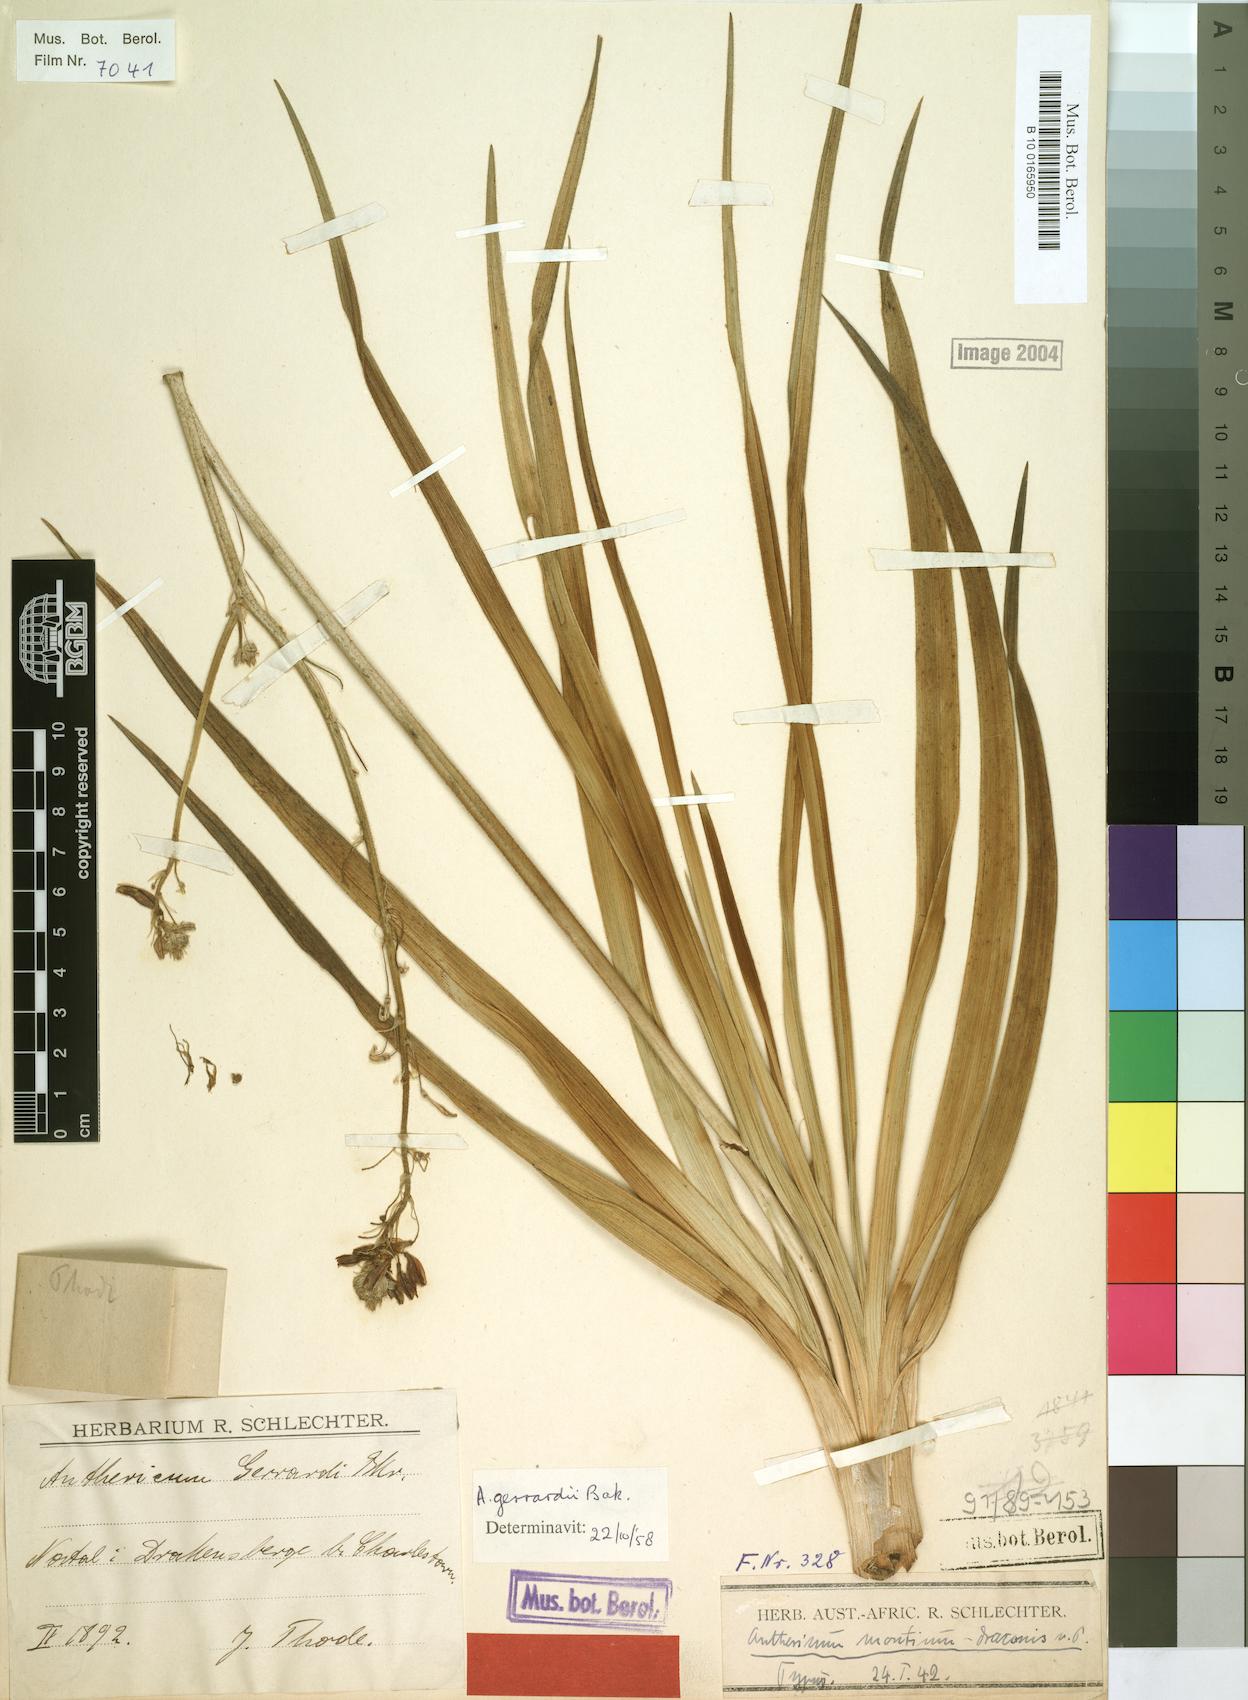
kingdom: Plantae
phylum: Tracheophyta
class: Liliopsida
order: Asparagales
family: Asphodelaceae
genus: Trachyandra
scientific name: Trachyandra gerrardii
